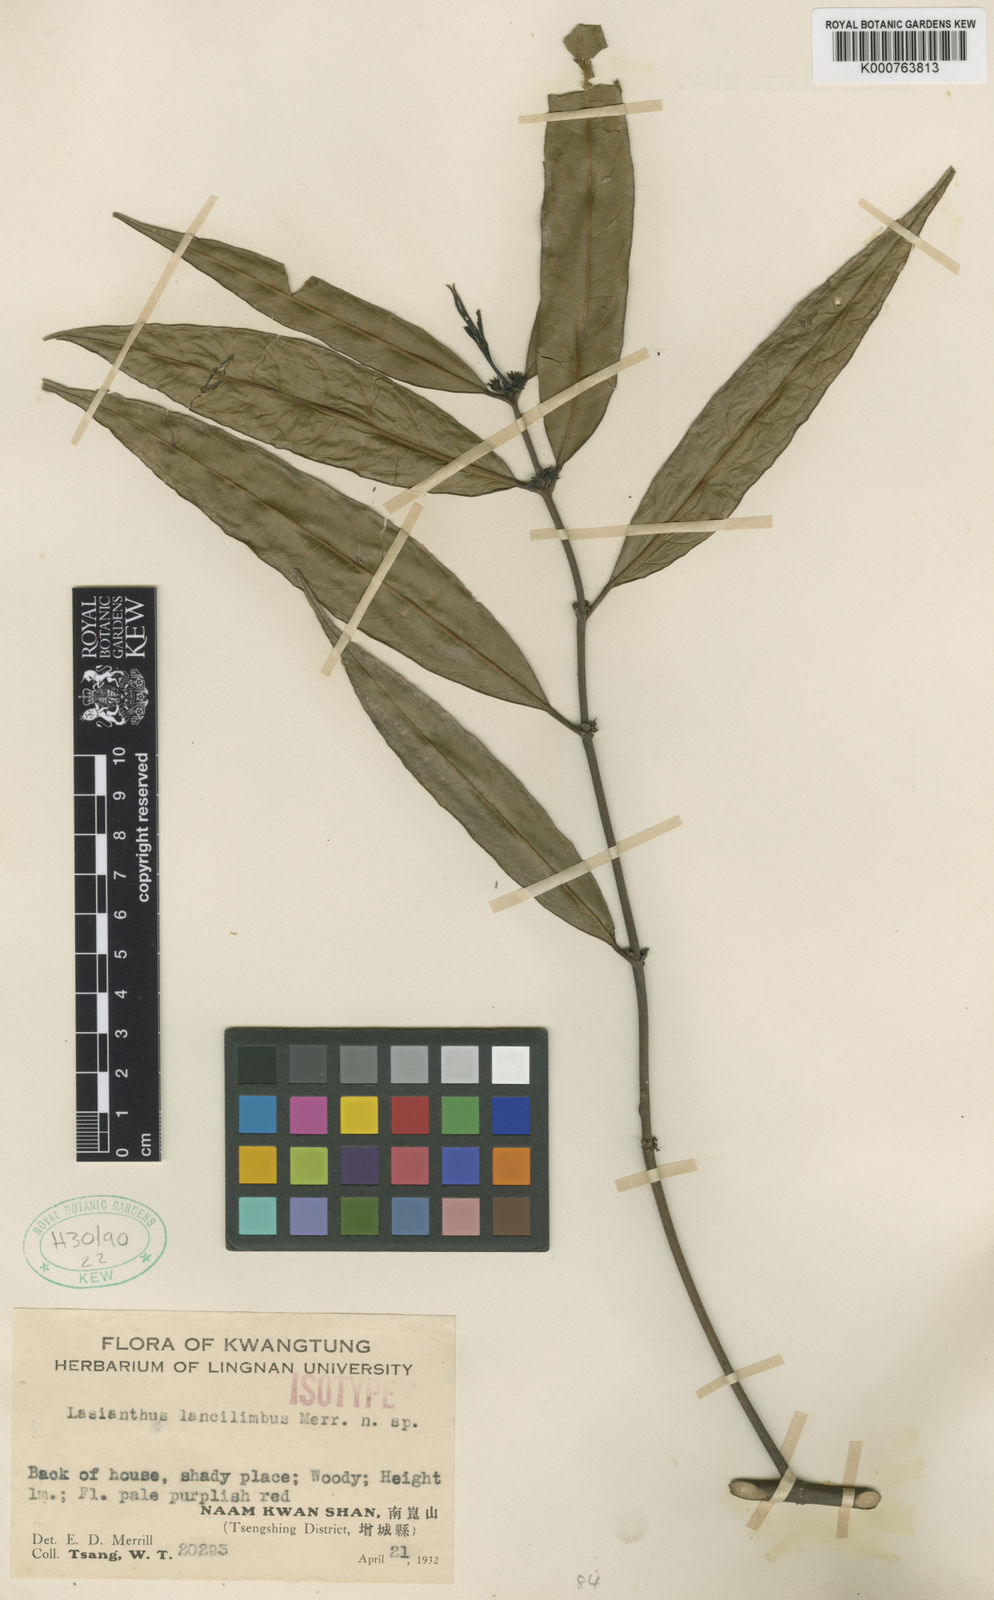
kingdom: Plantae
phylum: Tracheophyta
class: Magnoliopsida
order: Gentianales
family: Rubiaceae
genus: Lasianthus
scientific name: Lasianthus japonicus
